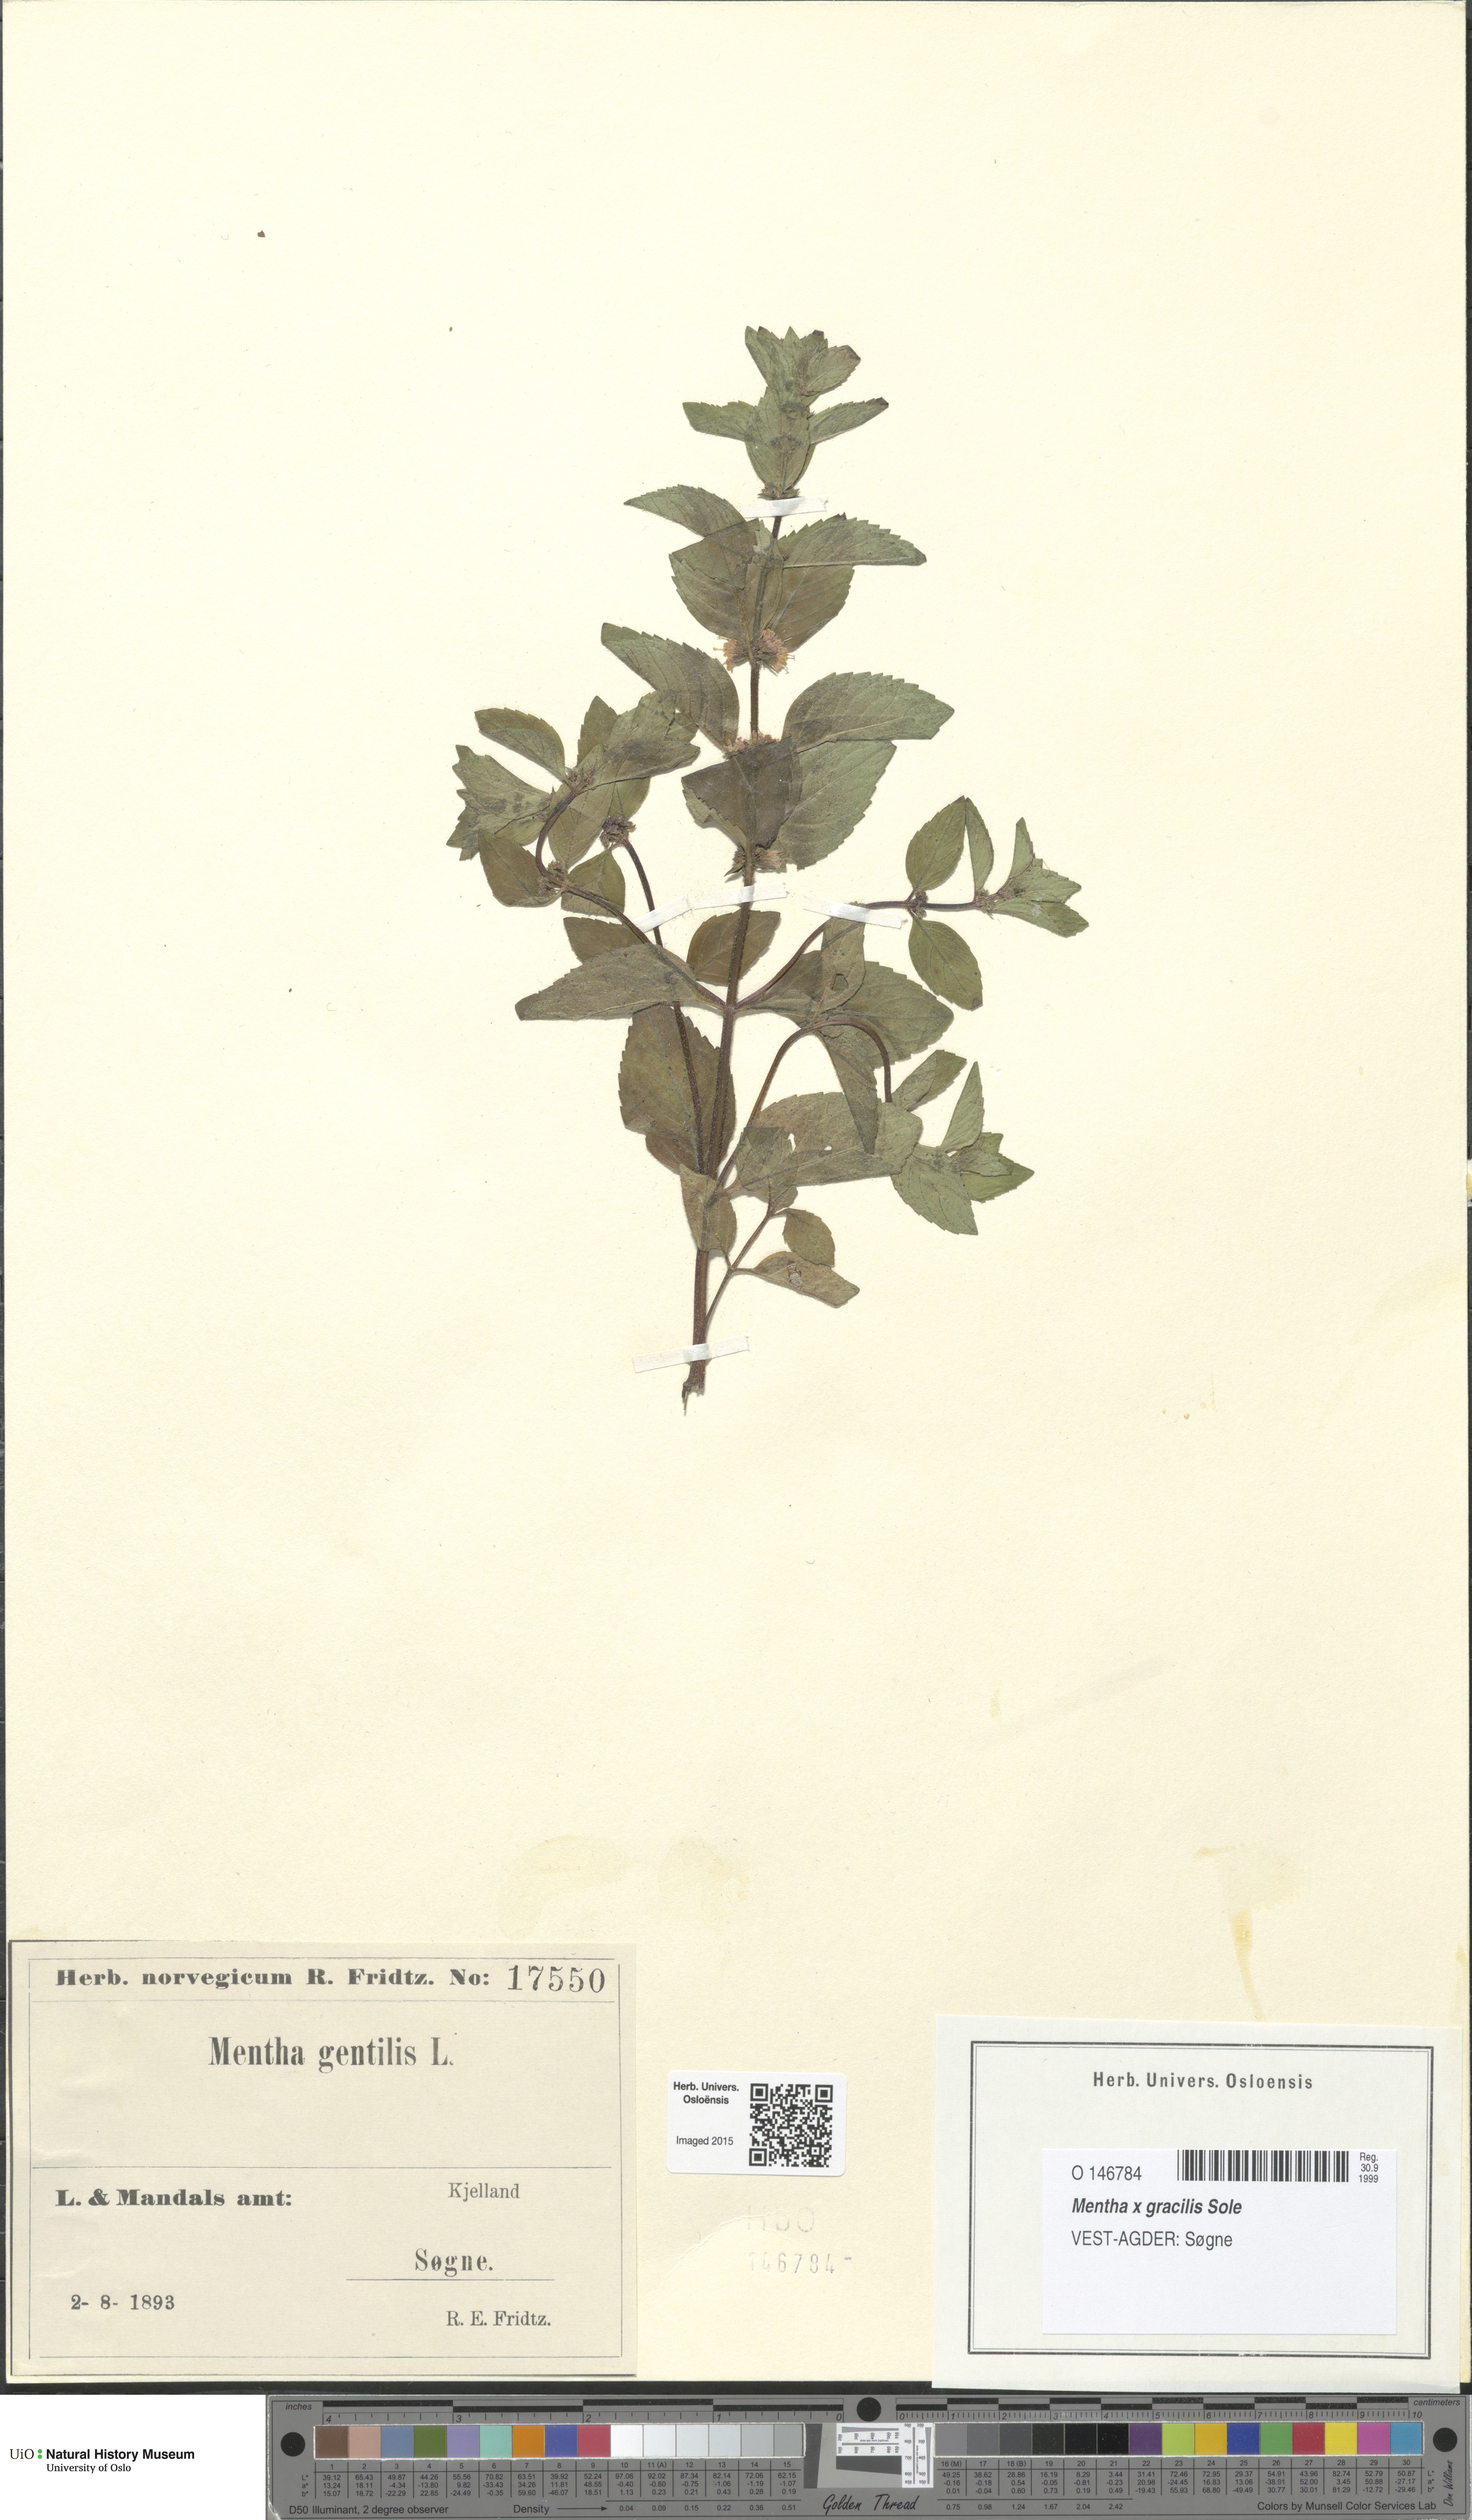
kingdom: Plantae
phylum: Tracheophyta
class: Magnoliopsida
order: Lamiales
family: Lamiaceae
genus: Mentha
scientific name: Mentha arvensis
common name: Corn mint
